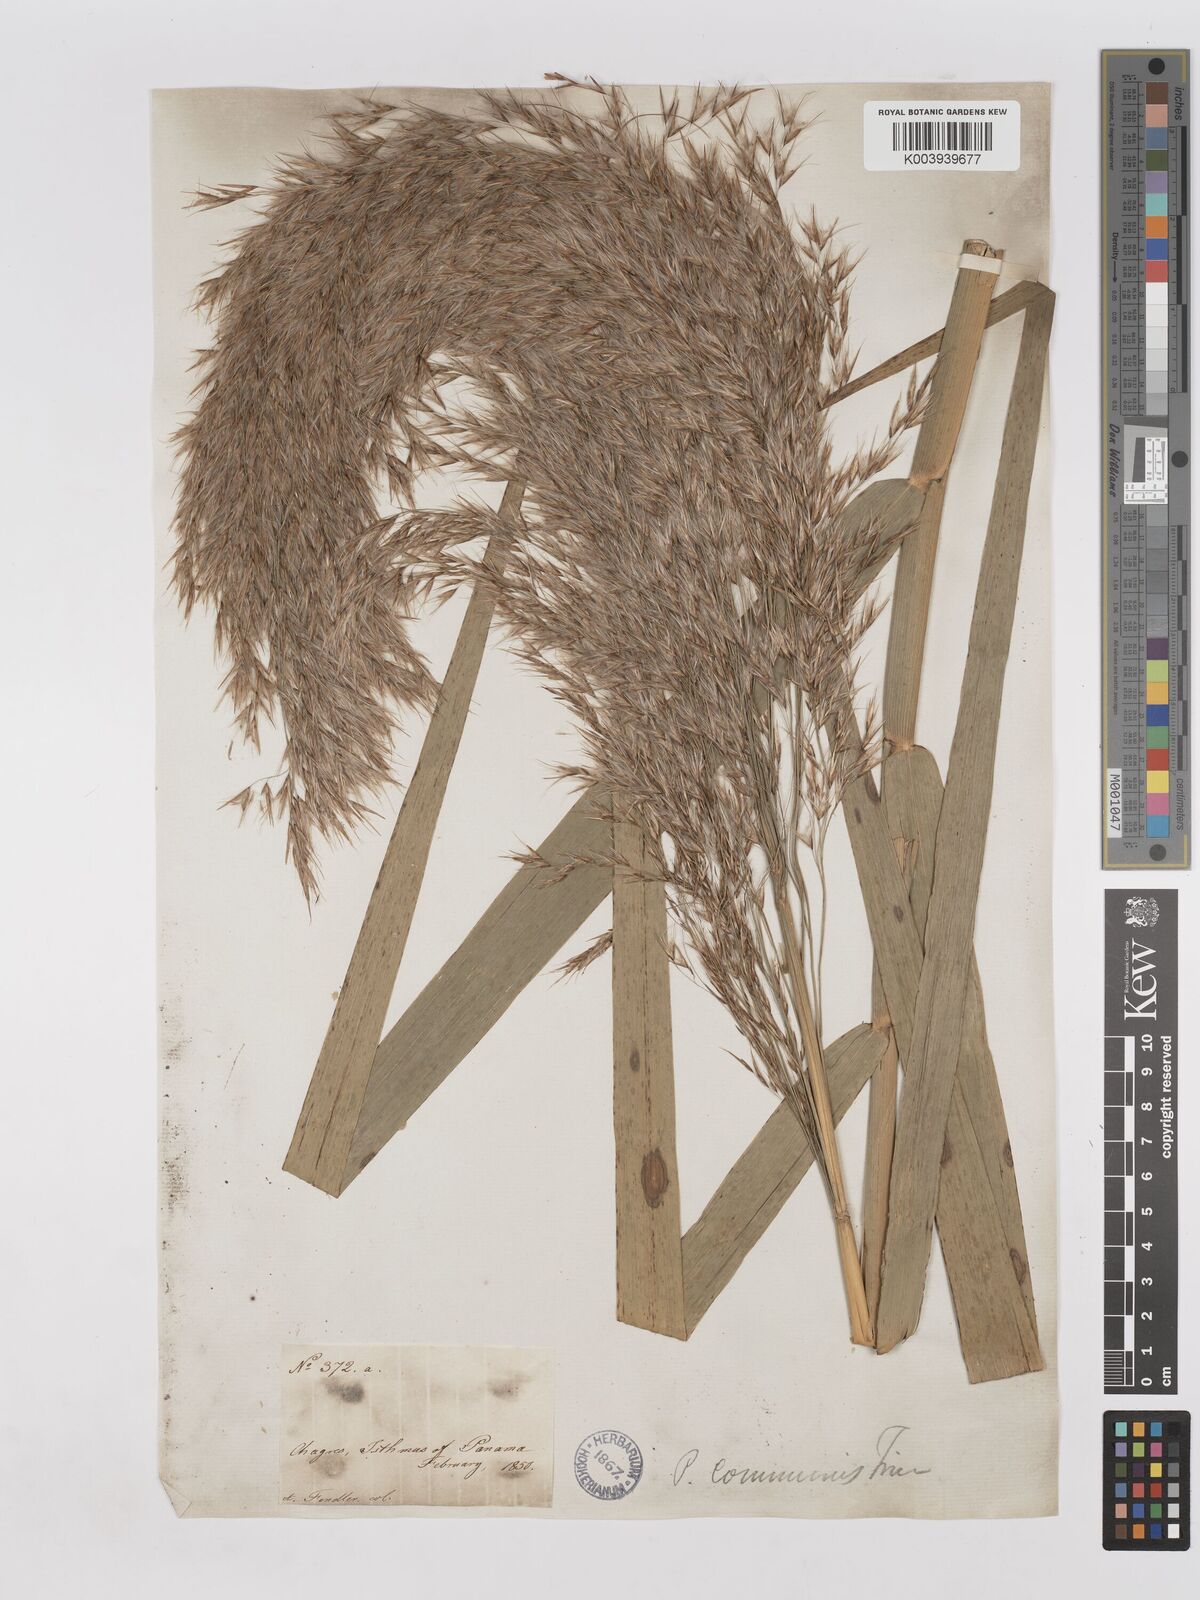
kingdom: Plantae
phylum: Tracheophyta
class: Liliopsida
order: Poales
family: Poaceae
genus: Phragmites
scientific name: Phragmites australis
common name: Common reed
